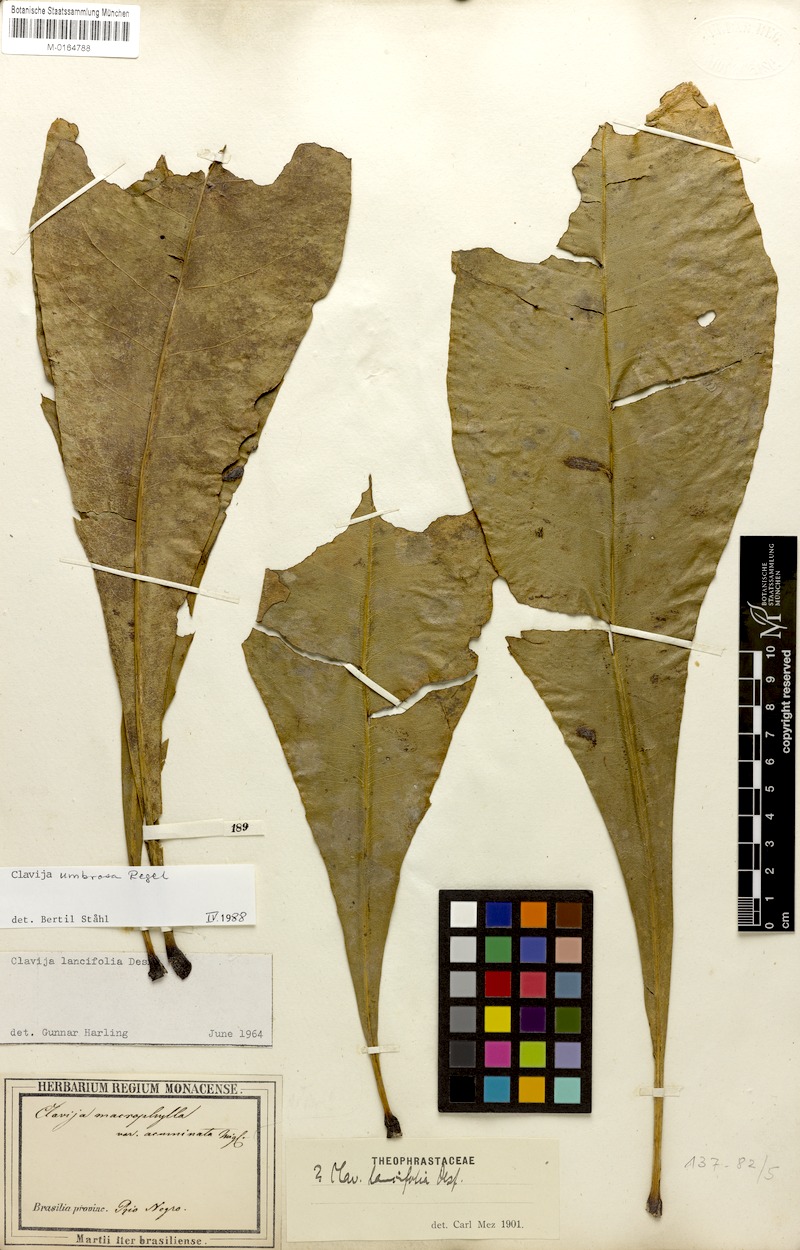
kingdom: Plantae
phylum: Tracheophyta
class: Magnoliopsida
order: Ericales
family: Primulaceae
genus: Clavija
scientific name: Clavija umbrosa
